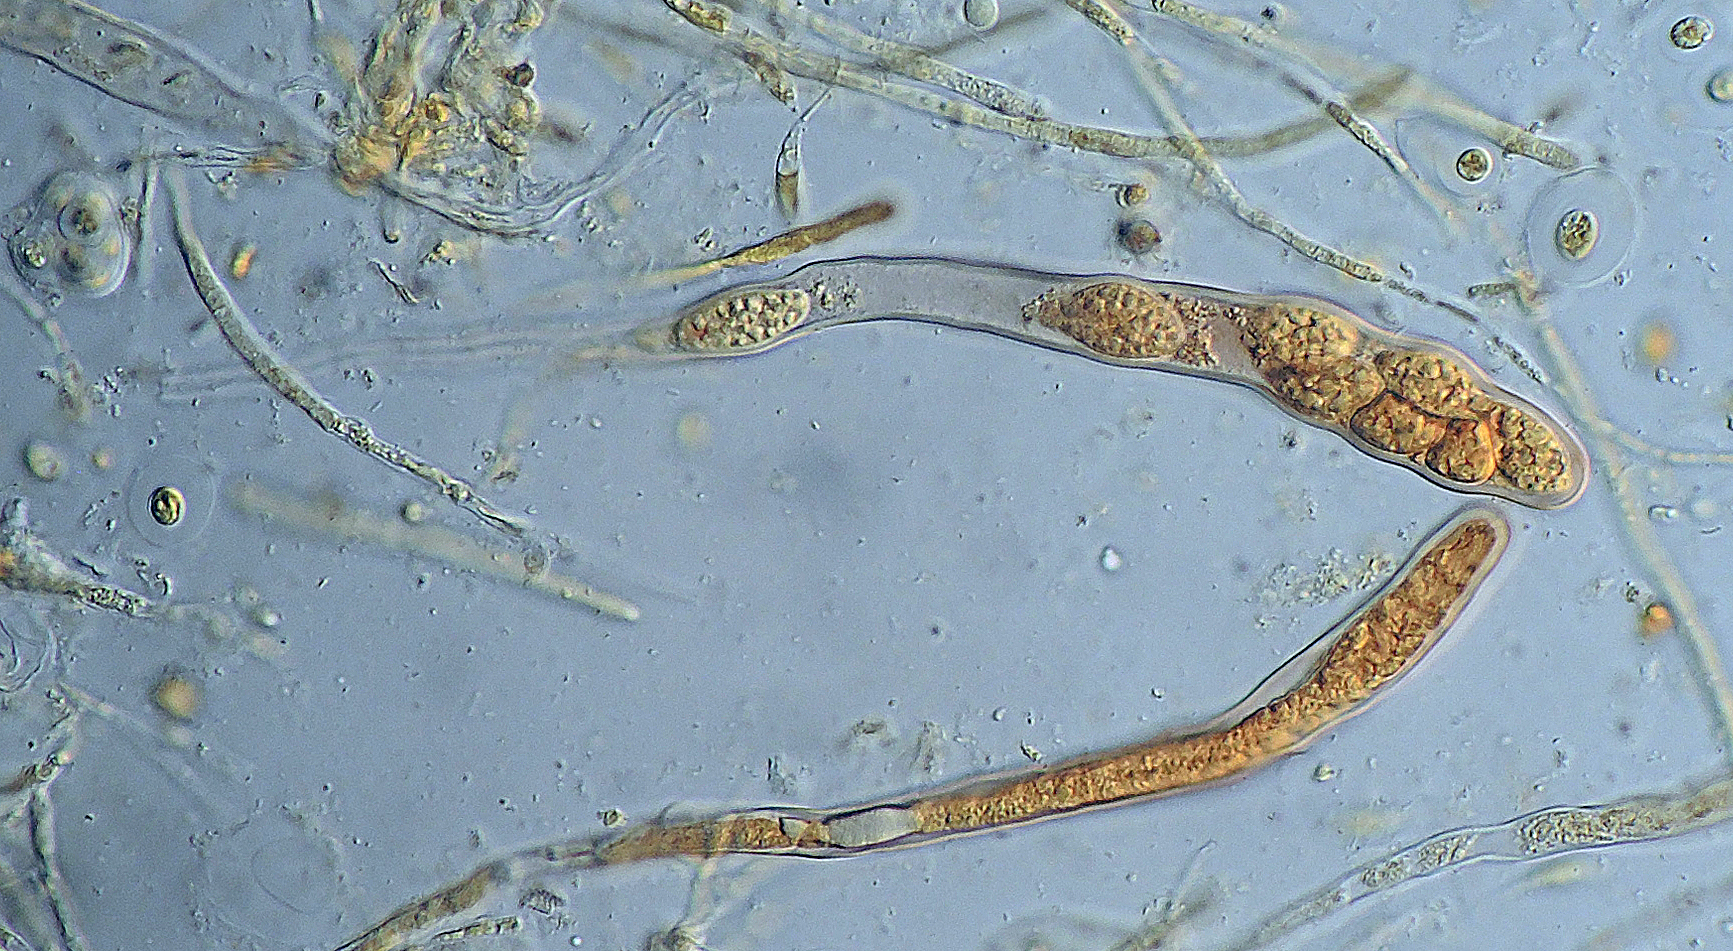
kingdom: Fungi
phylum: Ascomycota
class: Leotiomycetes
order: Leotiales
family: Mniaeciaceae
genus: Mniaecia
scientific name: Mniaecia nivea
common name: Calycina nivea
